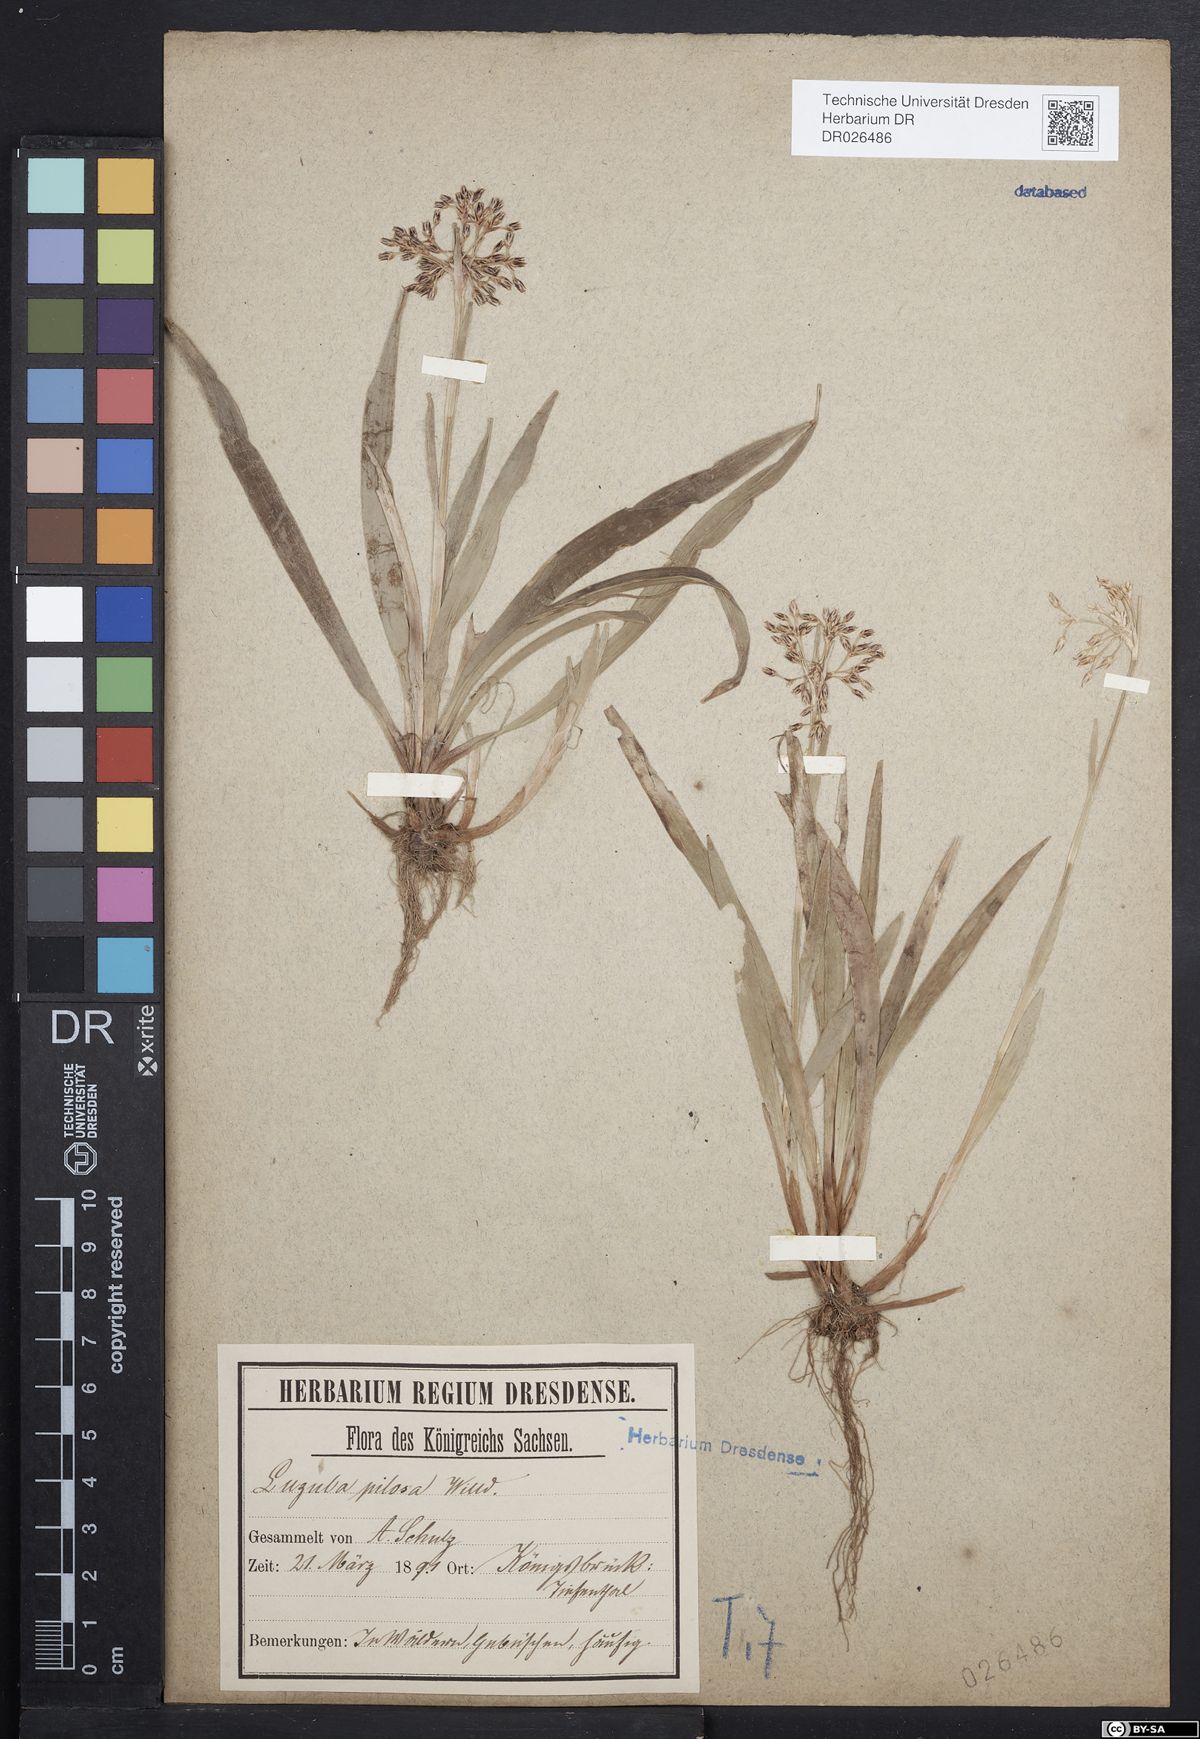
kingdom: Plantae
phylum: Tracheophyta
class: Liliopsida
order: Poales
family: Juncaceae
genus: Luzula
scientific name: Luzula pilosa
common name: Hairy wood-rush
